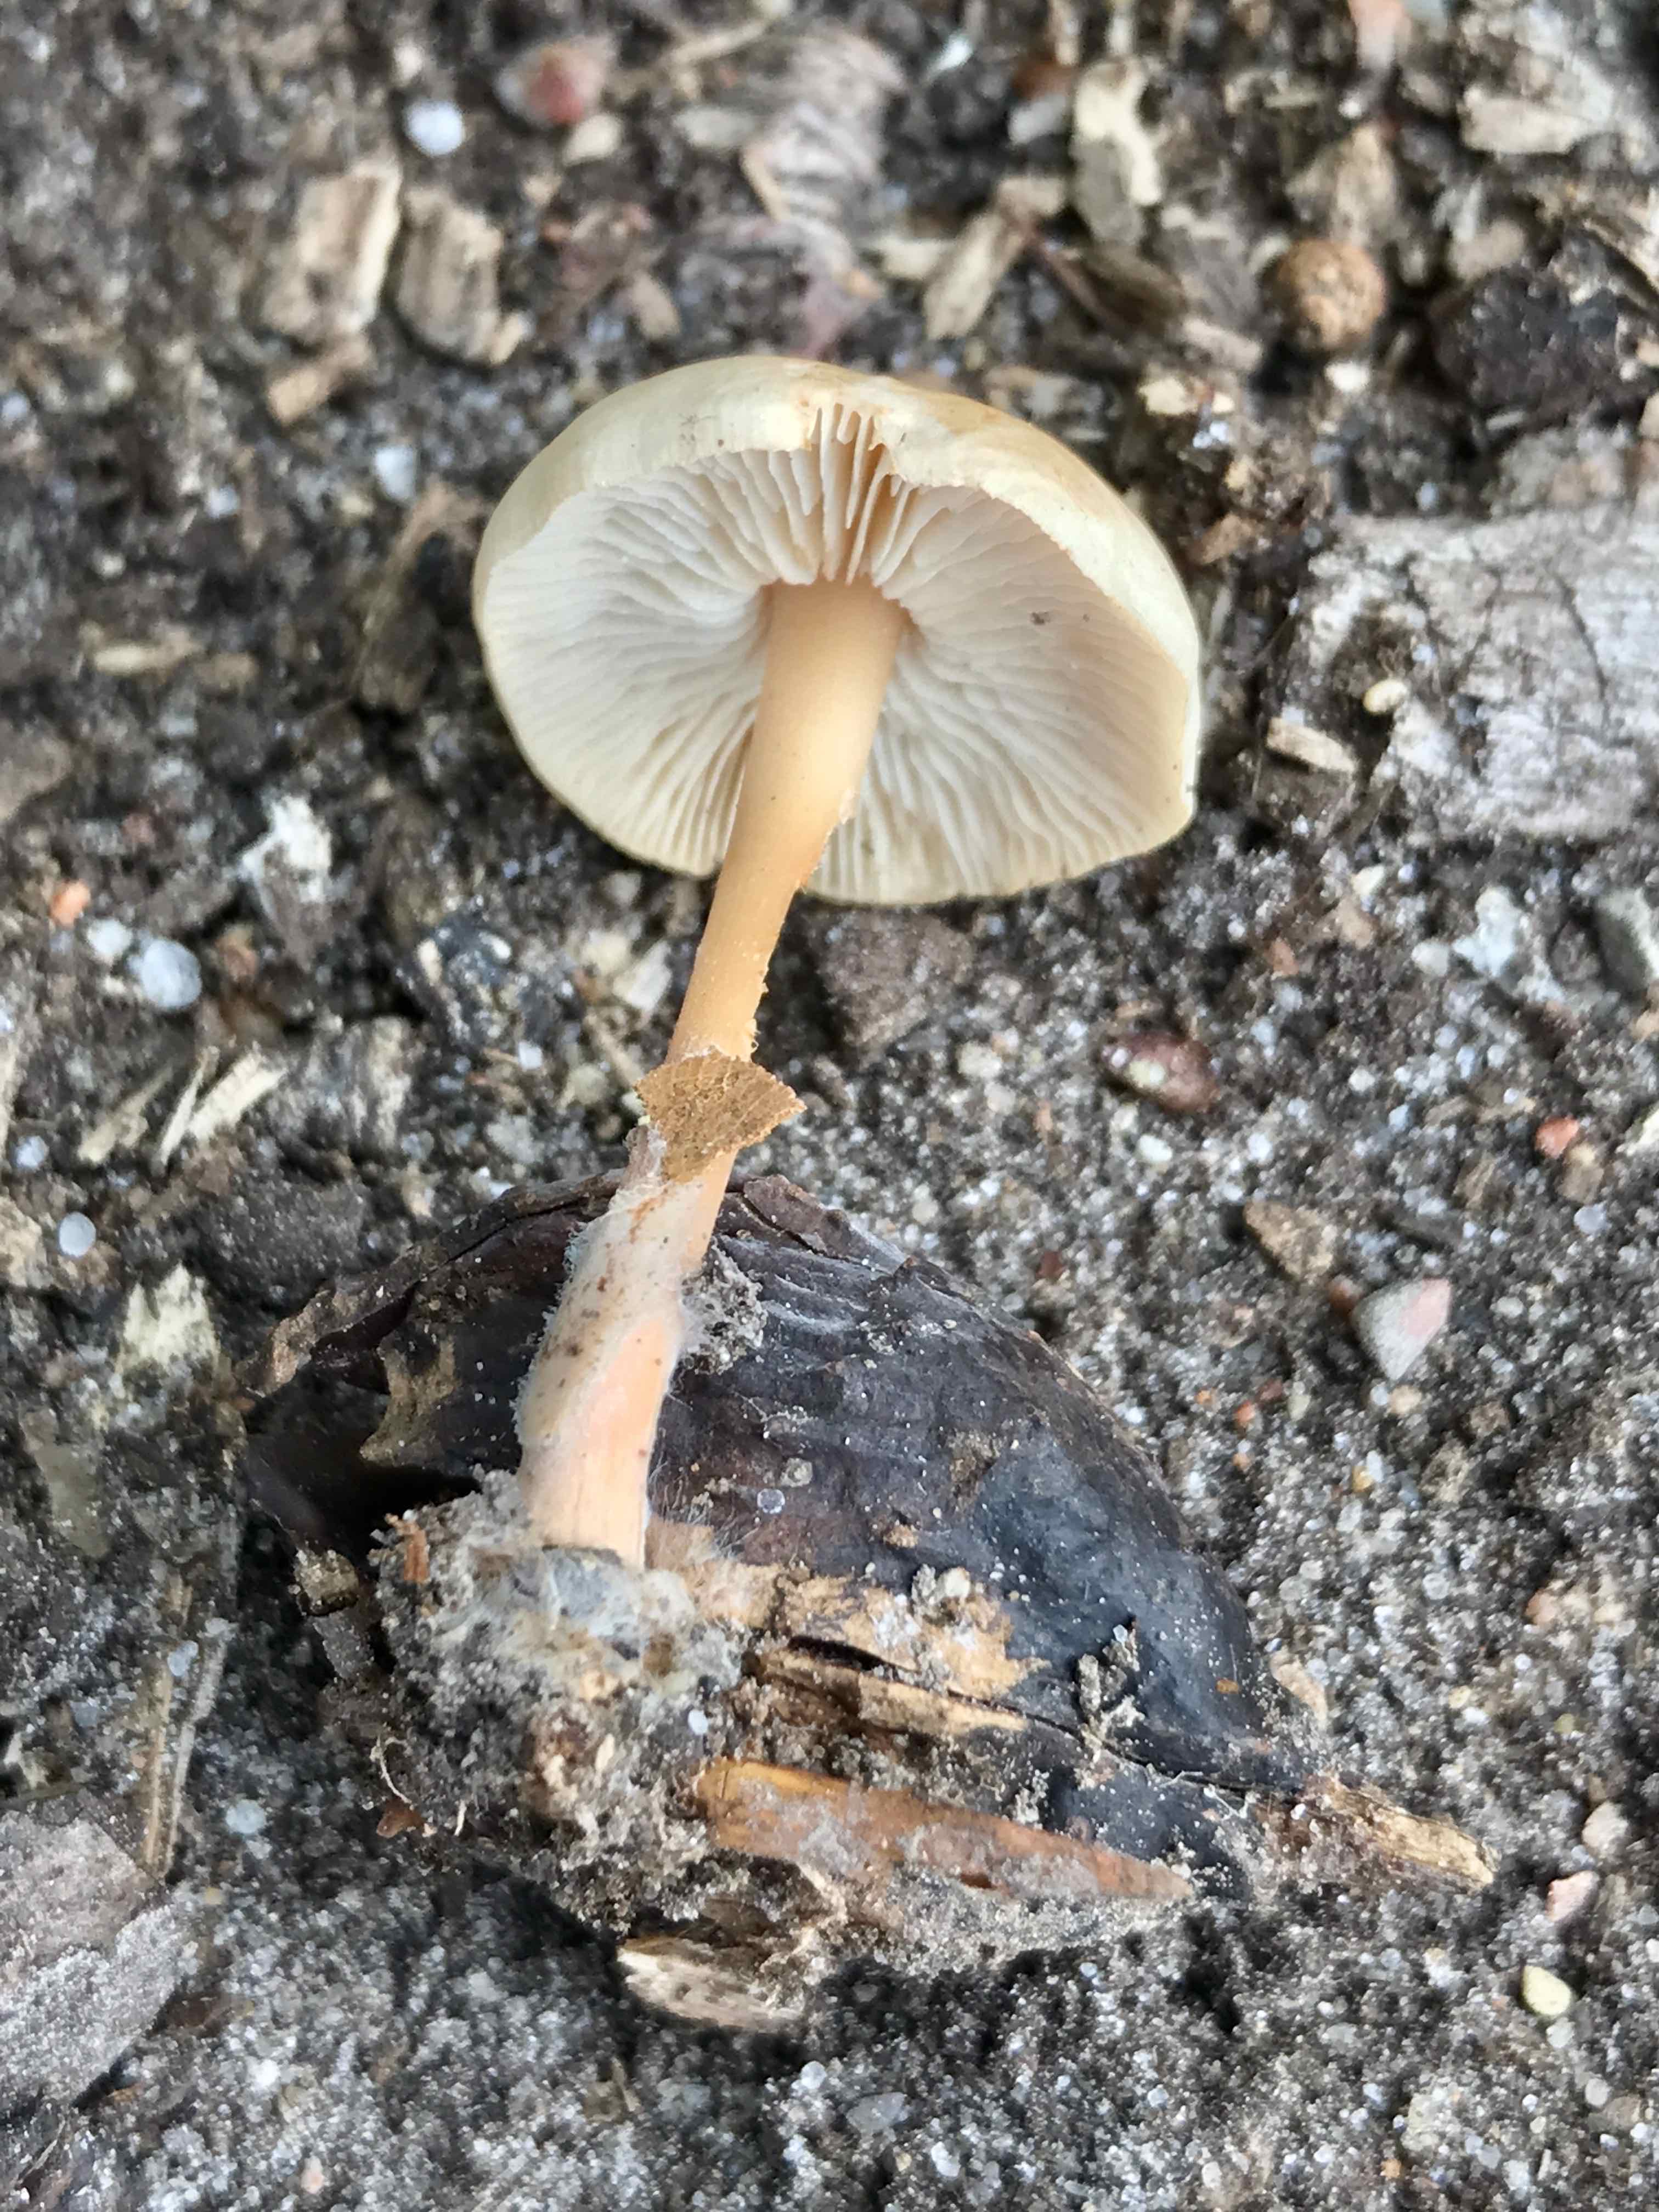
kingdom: Fungi
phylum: Basidiomycota
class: Agaricomycetes
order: Agaricales
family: Omphalotaceae
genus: Gymnopus
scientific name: Gymnopus
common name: fladhat
